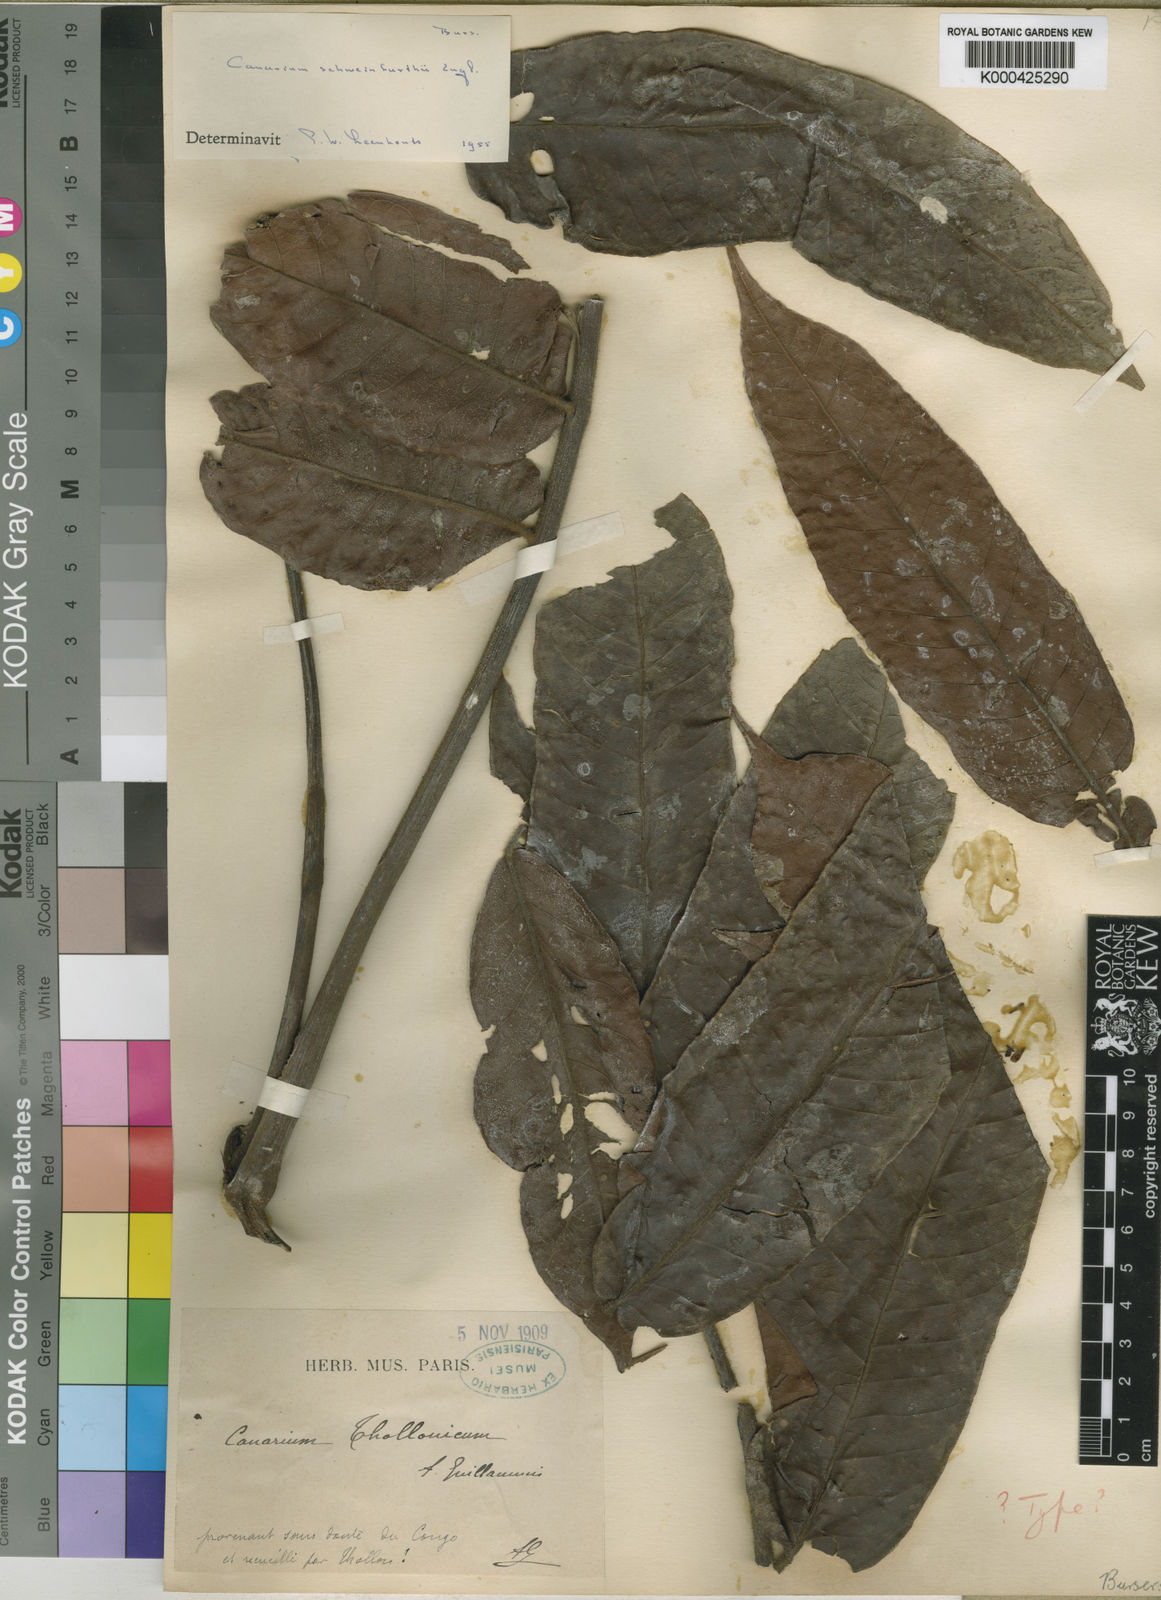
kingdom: Plantae
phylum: Tracheophyta
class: Magnoliopsida
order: Sapindales
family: Burseraceae
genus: Canarium
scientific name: Canarium schweinfurthii
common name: African elemi
